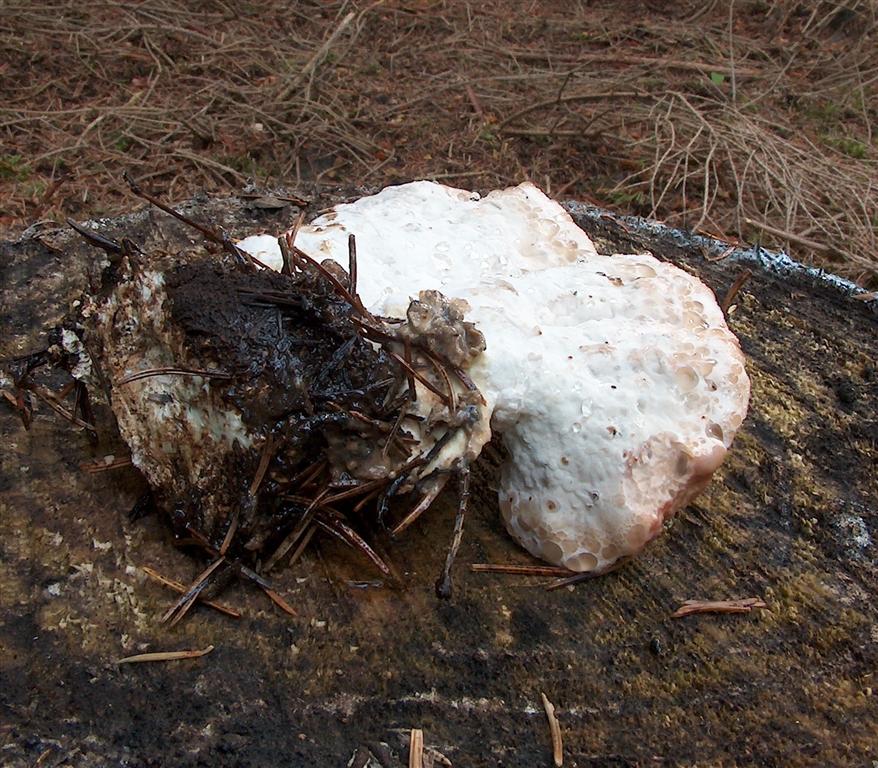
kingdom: Fungi
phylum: Basidiomycota
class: Agaricomycetes
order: Polyporales
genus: Calcipostia
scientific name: Calcipostia guttulata
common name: dråbe-kødporesvamp
